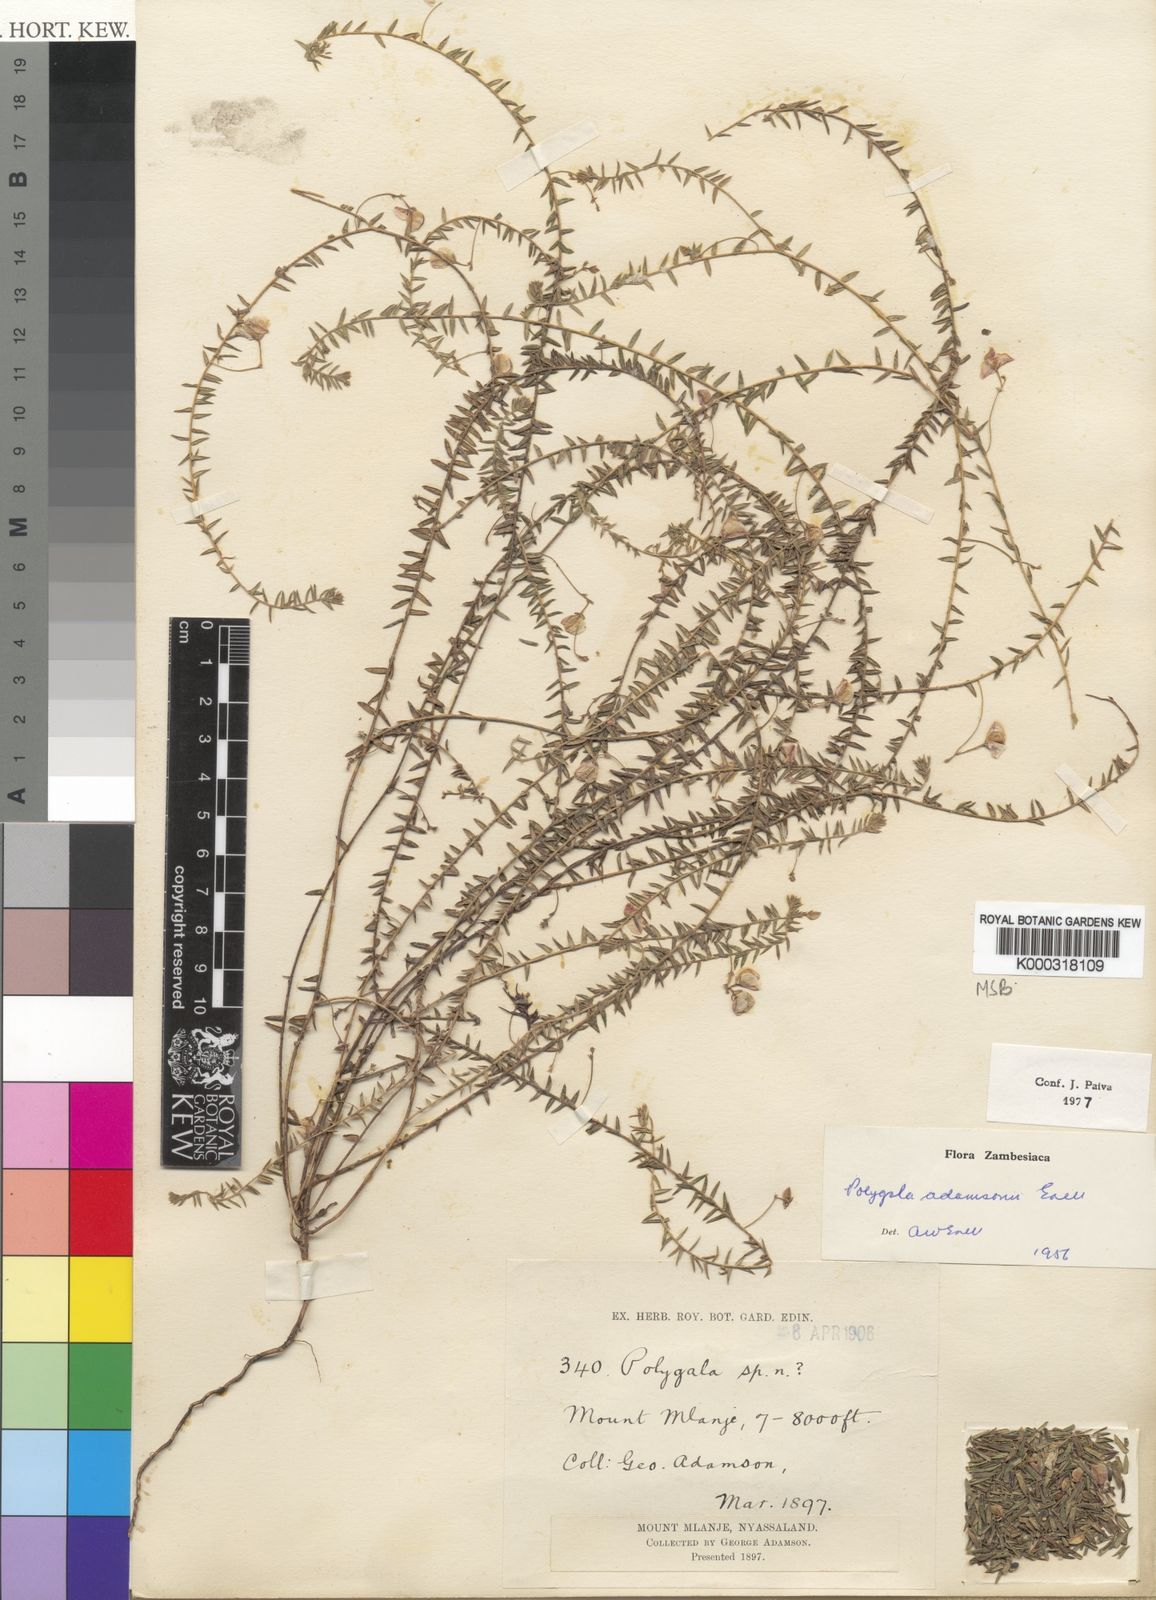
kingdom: Plantae
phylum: Tracheophyta
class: Magnoliopsida
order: Fabales
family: Polygalaceae
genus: Polygala
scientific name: Polygala adamsonii
